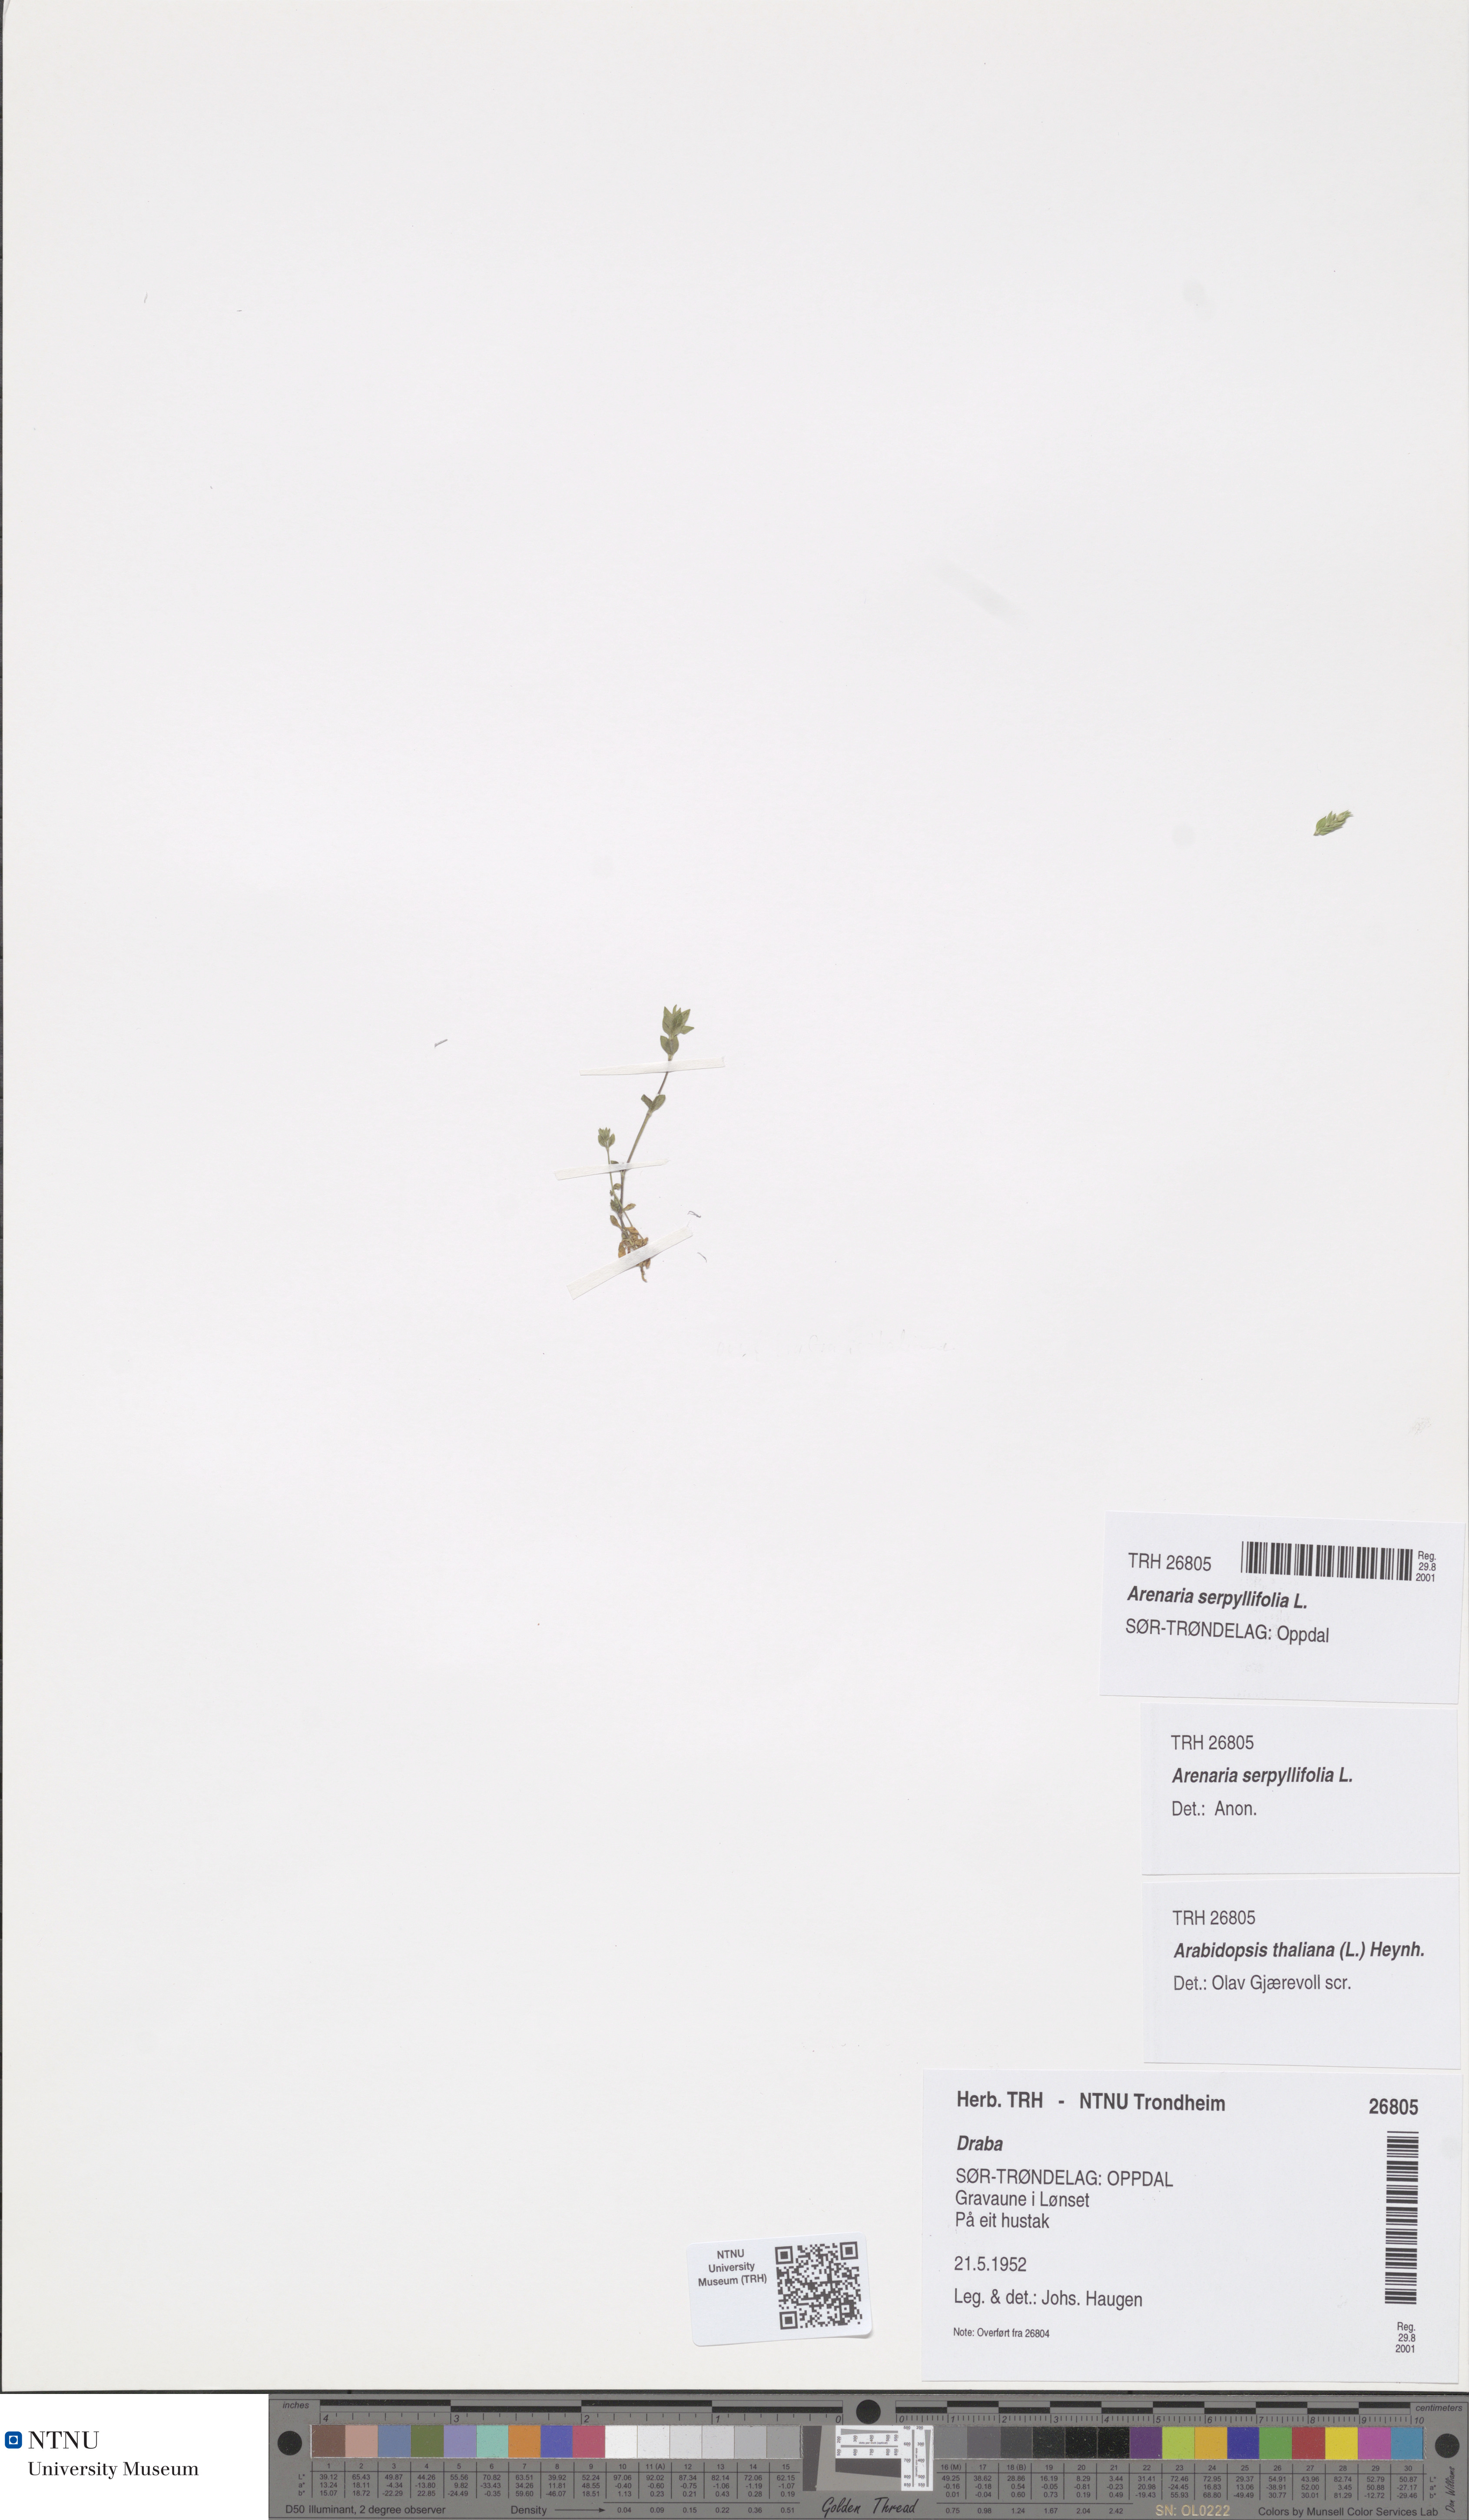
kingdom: Plantae
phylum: Tracheophyta
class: Magnoliopsida
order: Caryophyllales
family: Caryophyllaceae
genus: Arenaria
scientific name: Arenaria serpyllifolia
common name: Thyme-leaved sandwort
